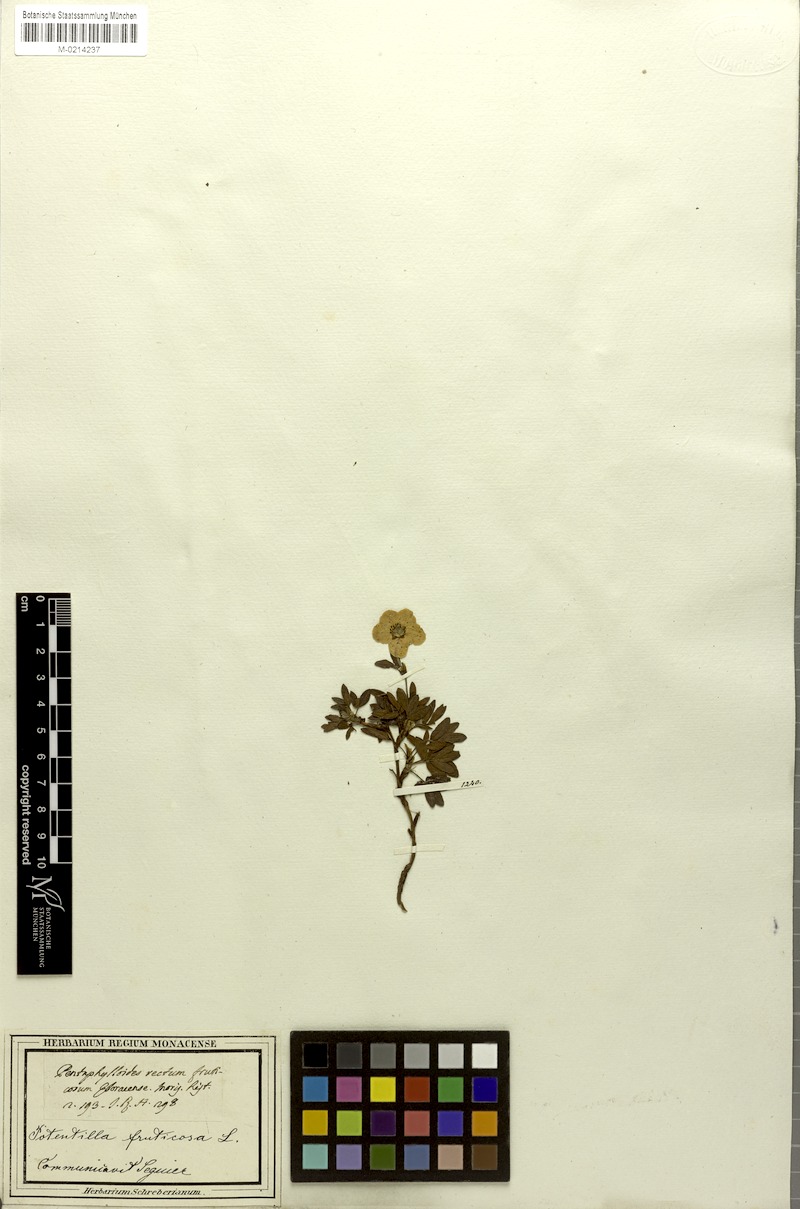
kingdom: Plantae
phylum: Tracheophyta
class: Magnoliopsida
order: Rosales
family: Rosaceae
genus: Dasiphora
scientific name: Dasiphora fruticosa
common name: Shrubby cinquefoil
